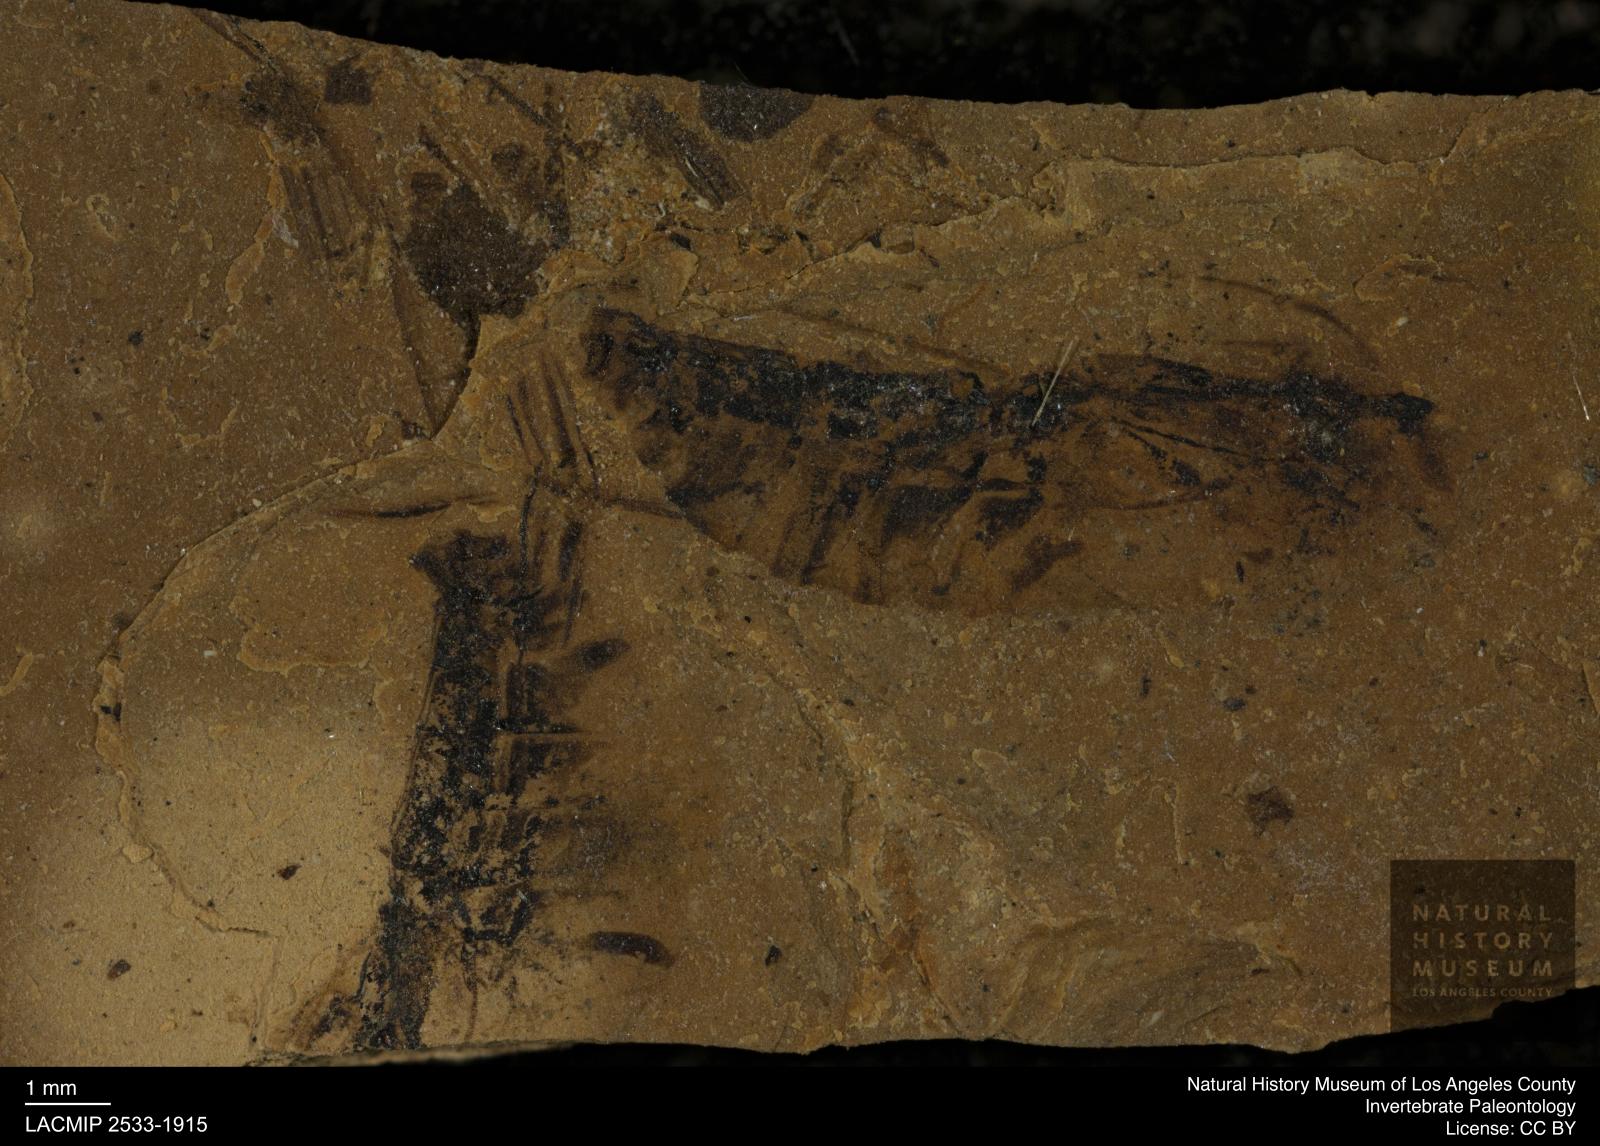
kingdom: Animalia
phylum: Arthropoda
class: Insecta
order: Hemiptera
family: Notonectidae
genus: Notonecta
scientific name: Notonecta
